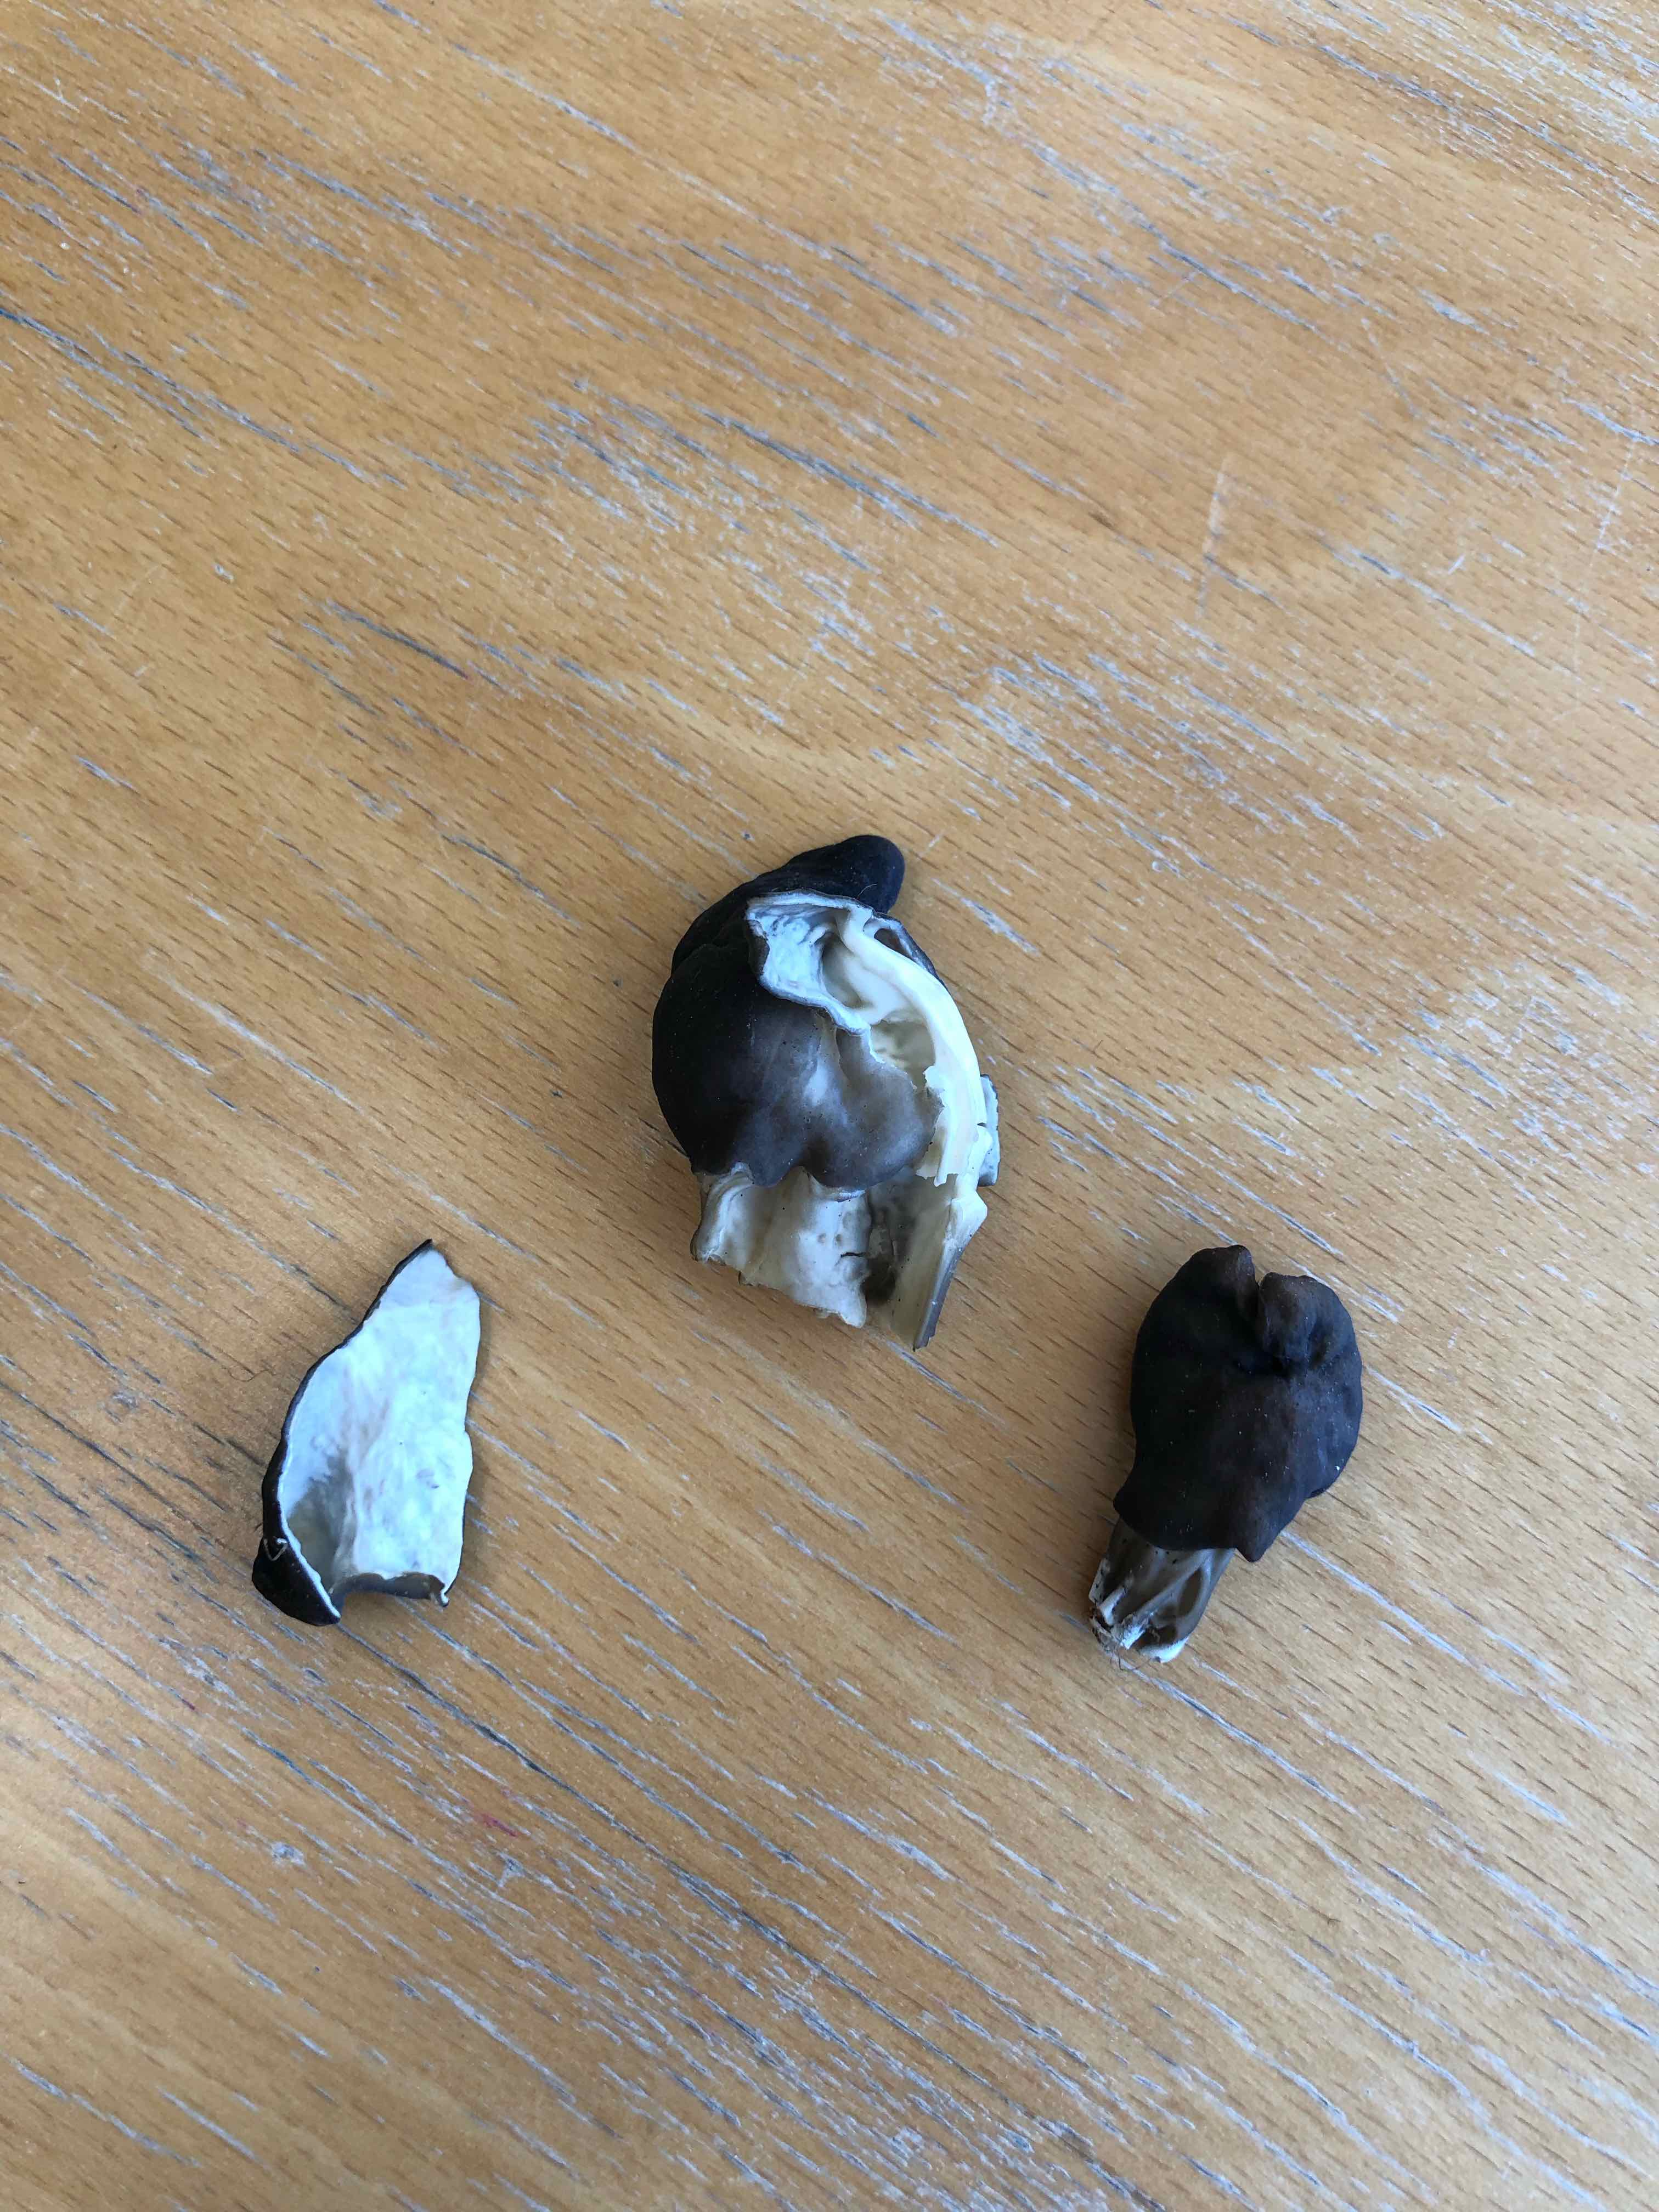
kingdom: Fungi
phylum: Ascomycota
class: Pezizomycetes
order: Pezizales
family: Helvellaceae
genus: Helvella
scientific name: Helvella lacunosa
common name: grubet foldhat
